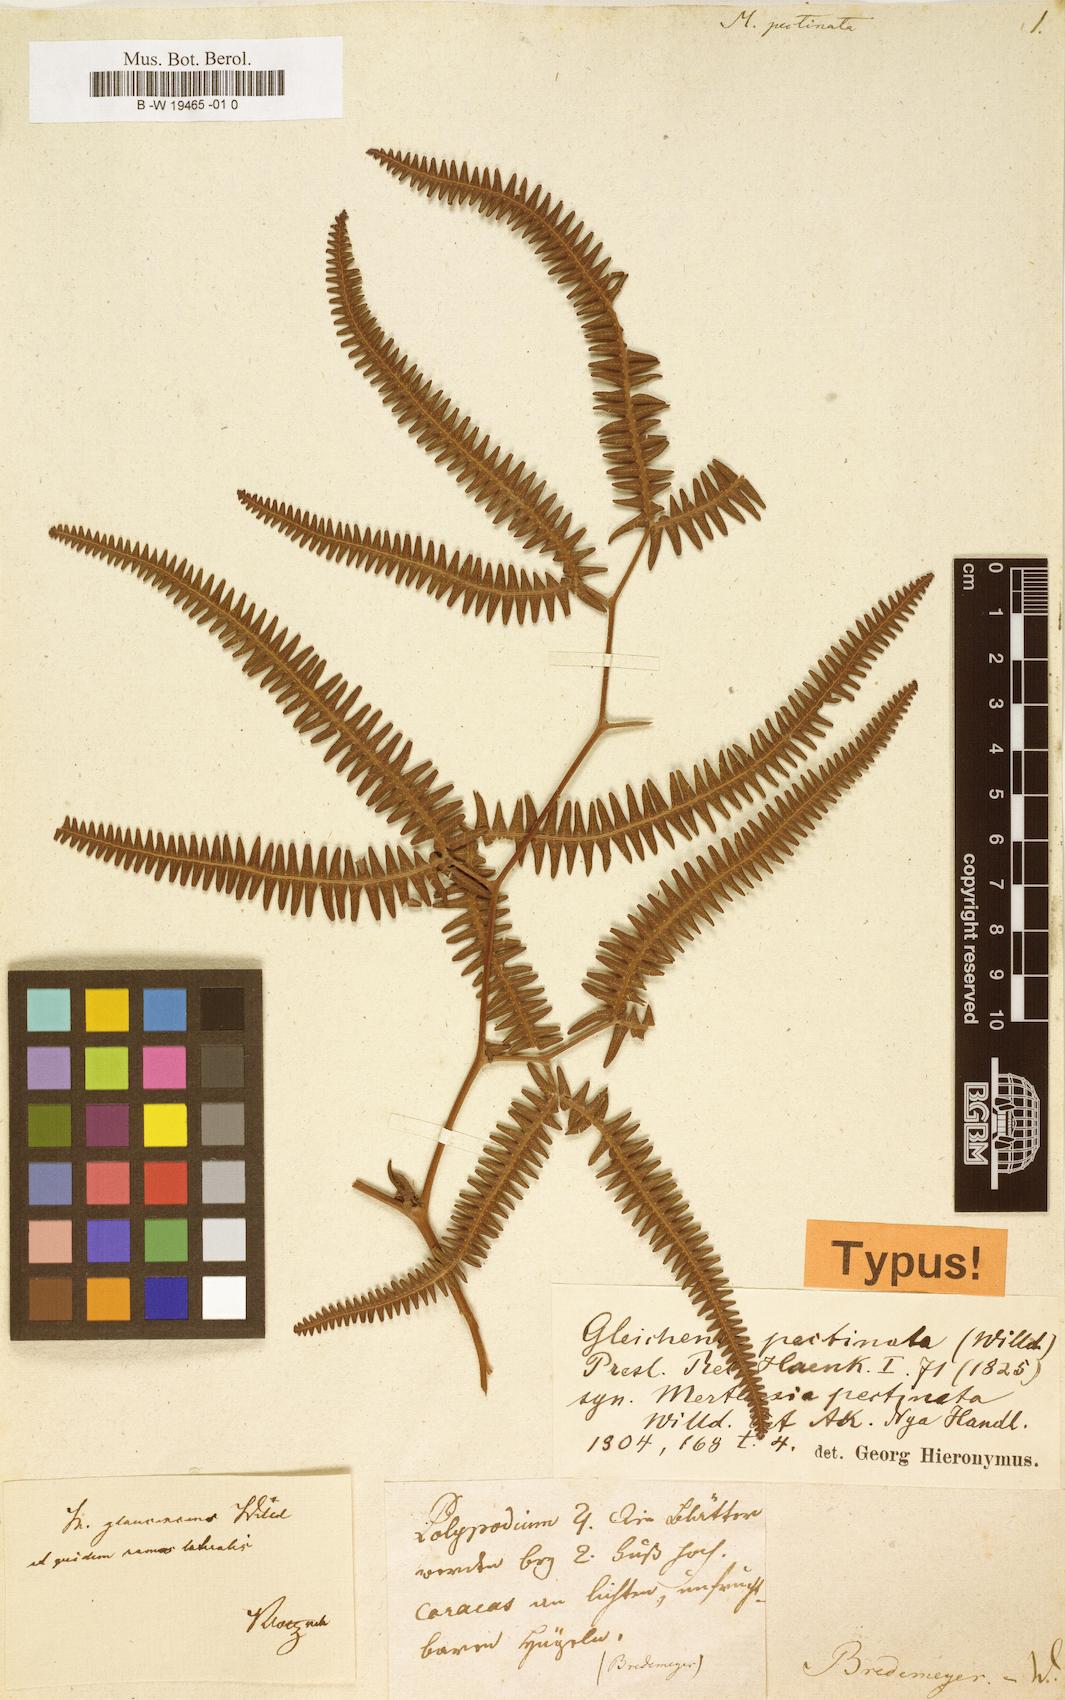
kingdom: Plantae
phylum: Tracheophyta
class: Polypodiopsida
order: Gleicheniales
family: Gleicheniaceae
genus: Gleichenella
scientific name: Gleichenella pectinata
